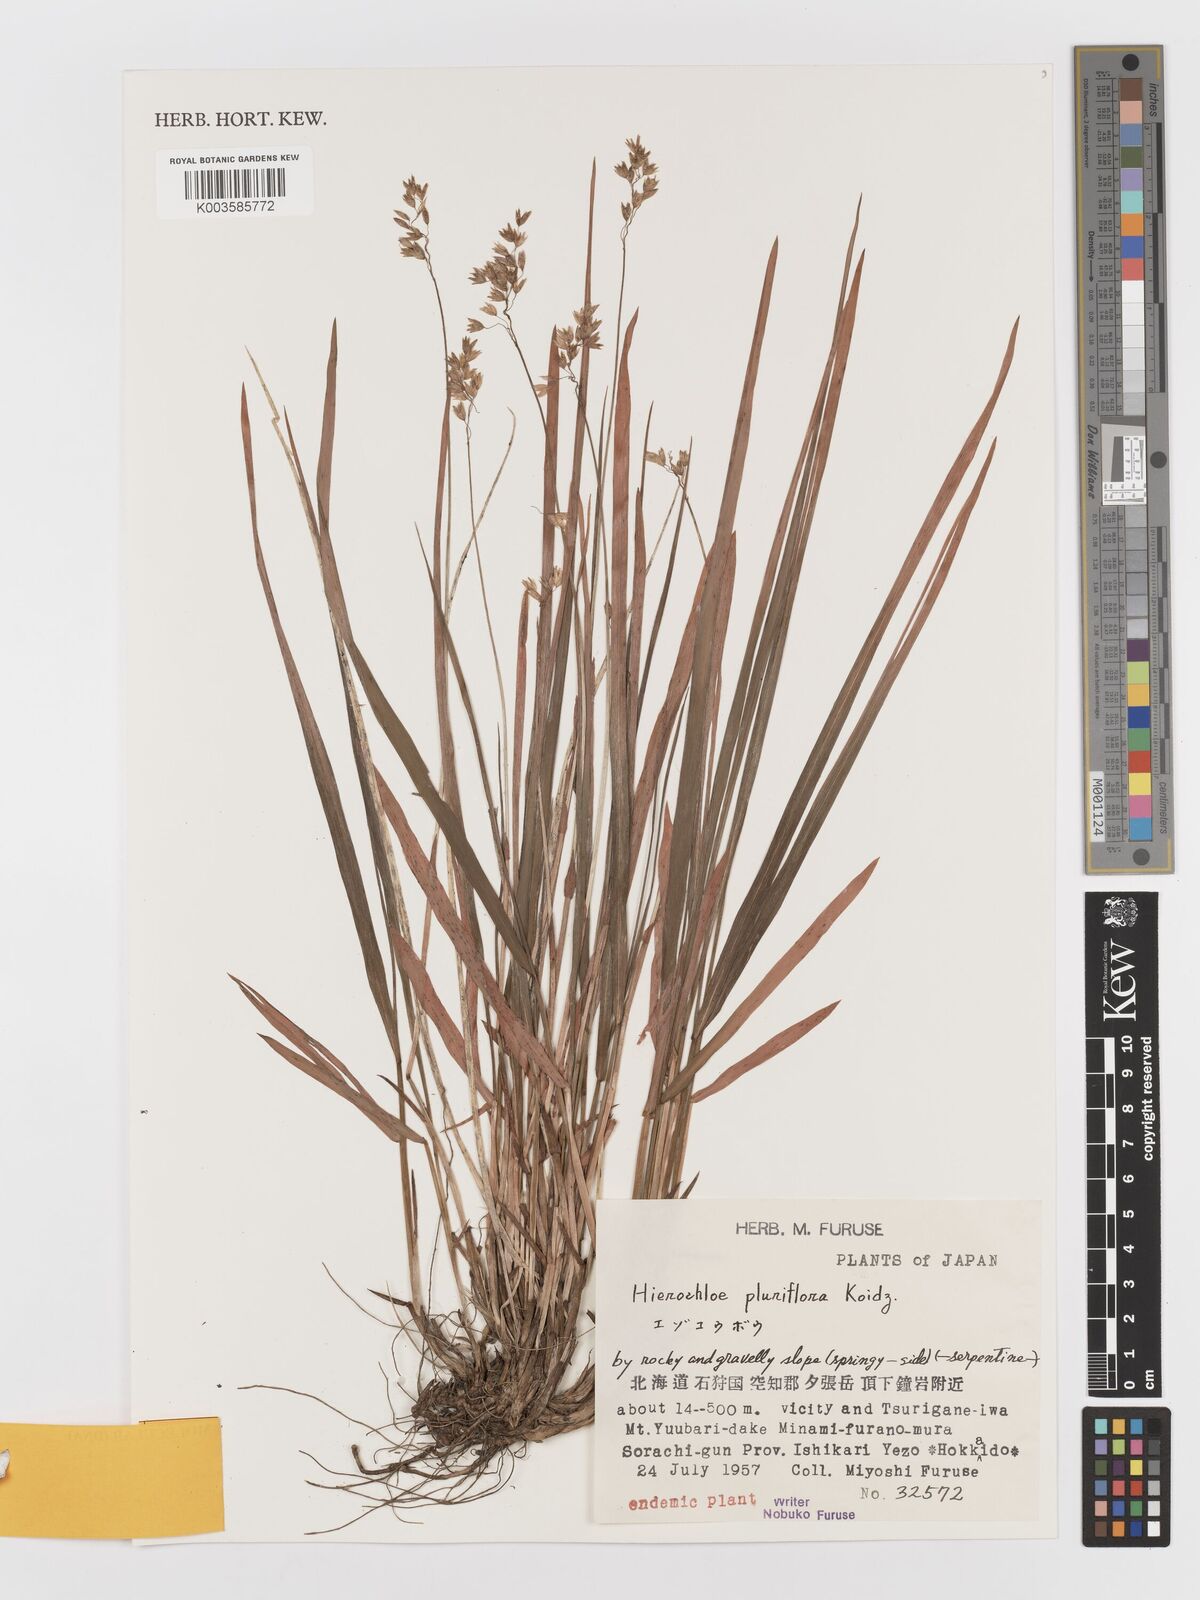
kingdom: Plantae
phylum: Tracheophyta
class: Liliopsida
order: Poales
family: Poaceae
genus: Anthoxanthum
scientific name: Anthoxanthum arcticum
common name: Arctic sweetgrass
